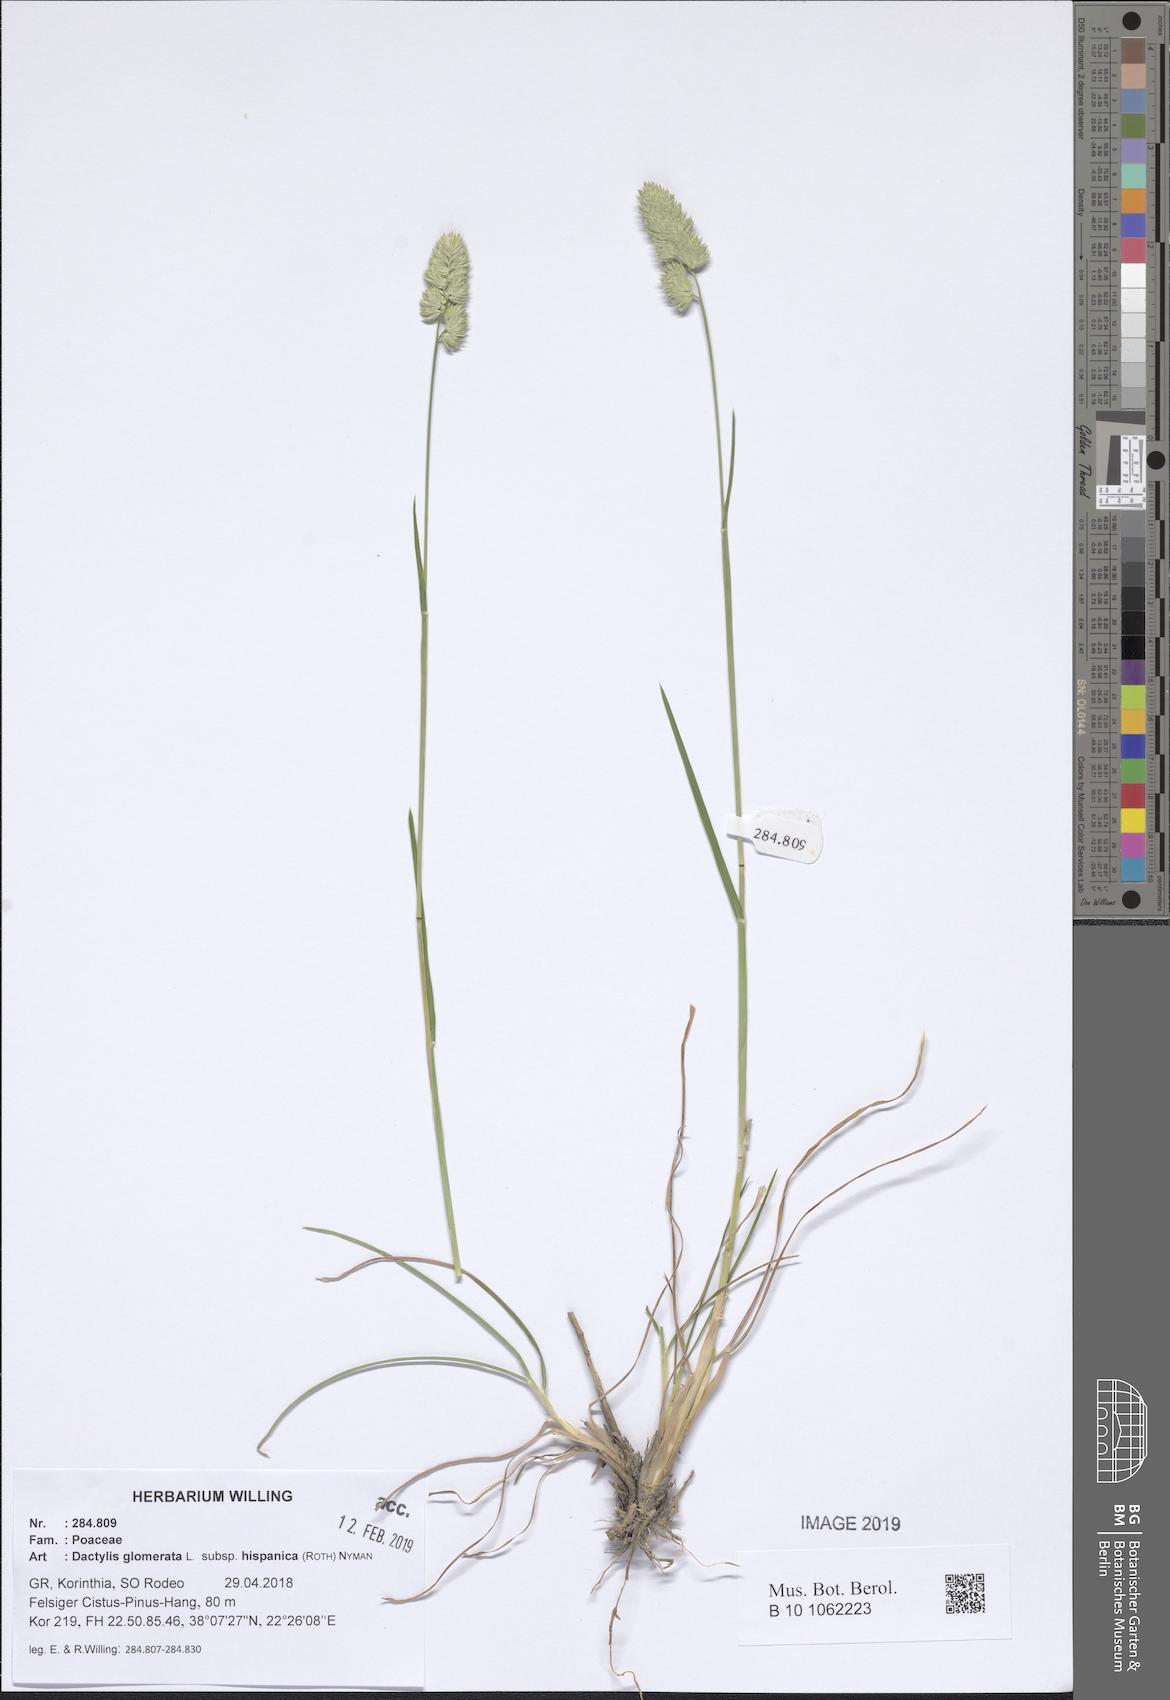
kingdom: Plantae
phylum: Tracheophyta
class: Liliopsida
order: Poales
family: Poaceae
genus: Dactylis
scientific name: Dactylis glomerata
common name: Orchardgrass
